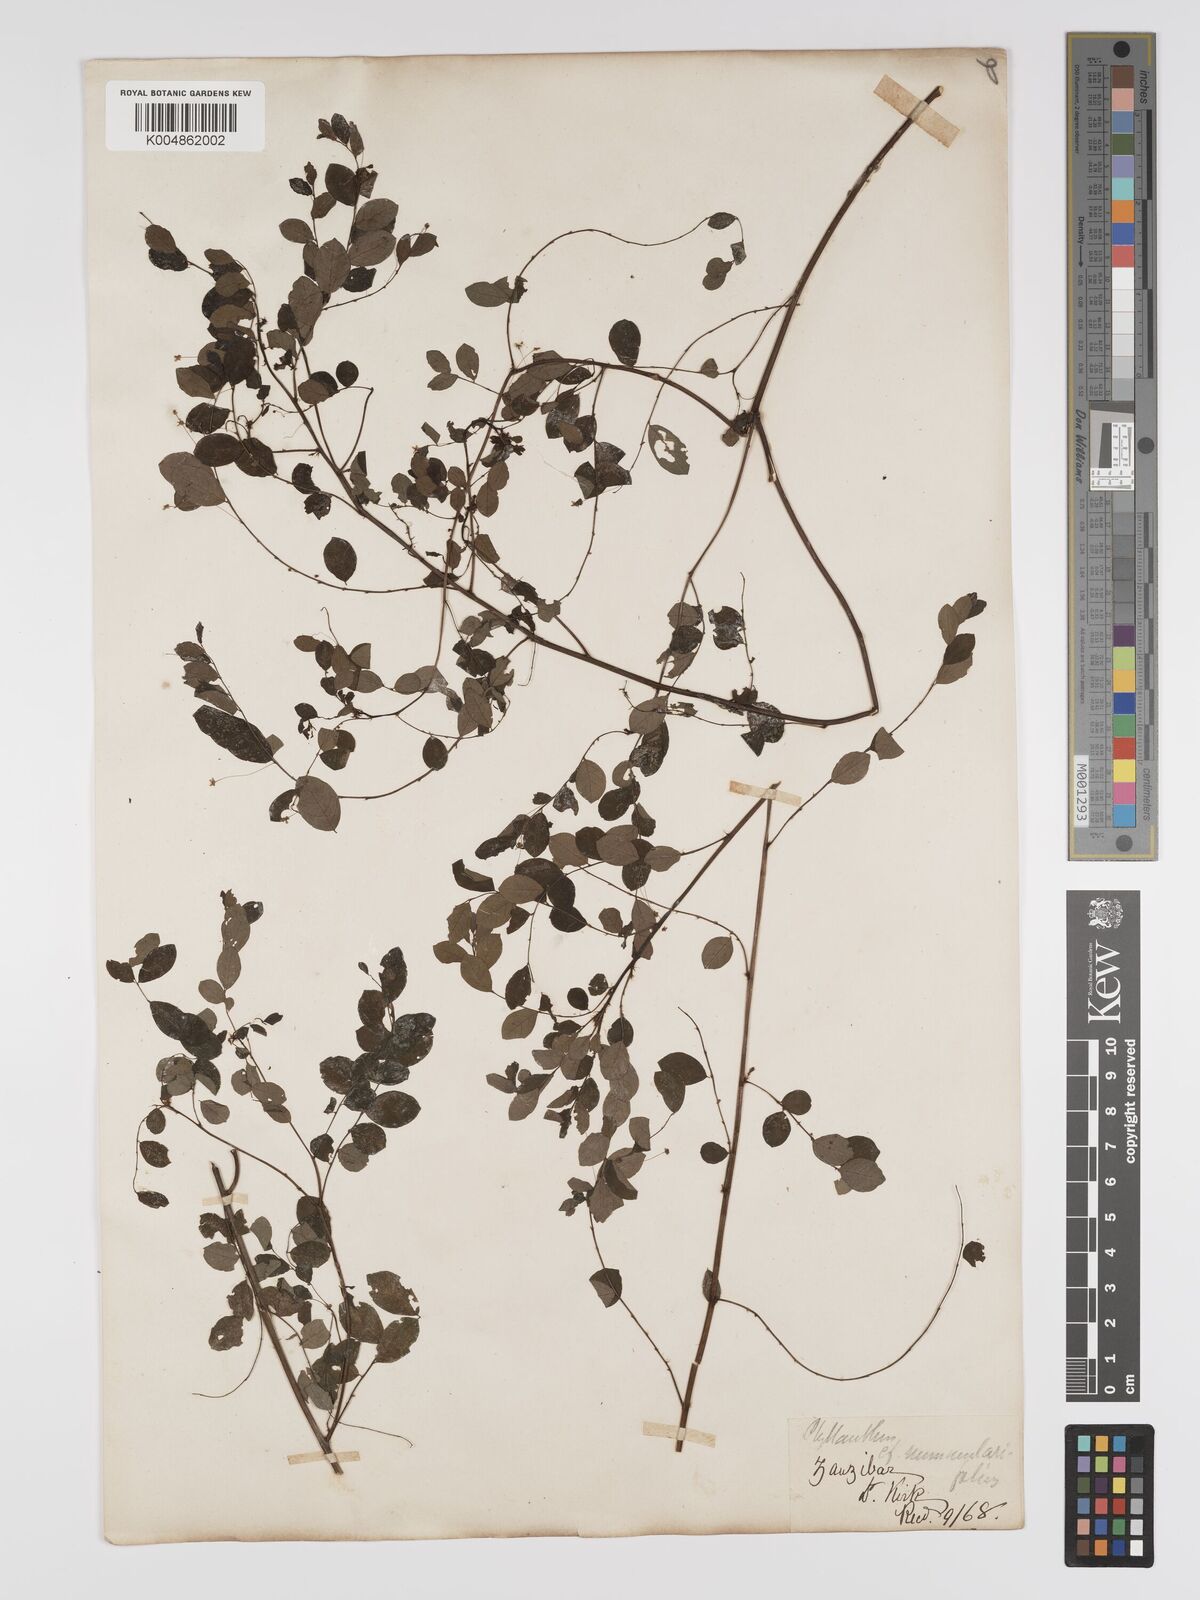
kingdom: Plantae
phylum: Tracheophyta
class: Magnoliopsida
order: Malpighiales
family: Phyllanthaceae
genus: Phyllanthus
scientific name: Phyllanthus nummulariifolius
